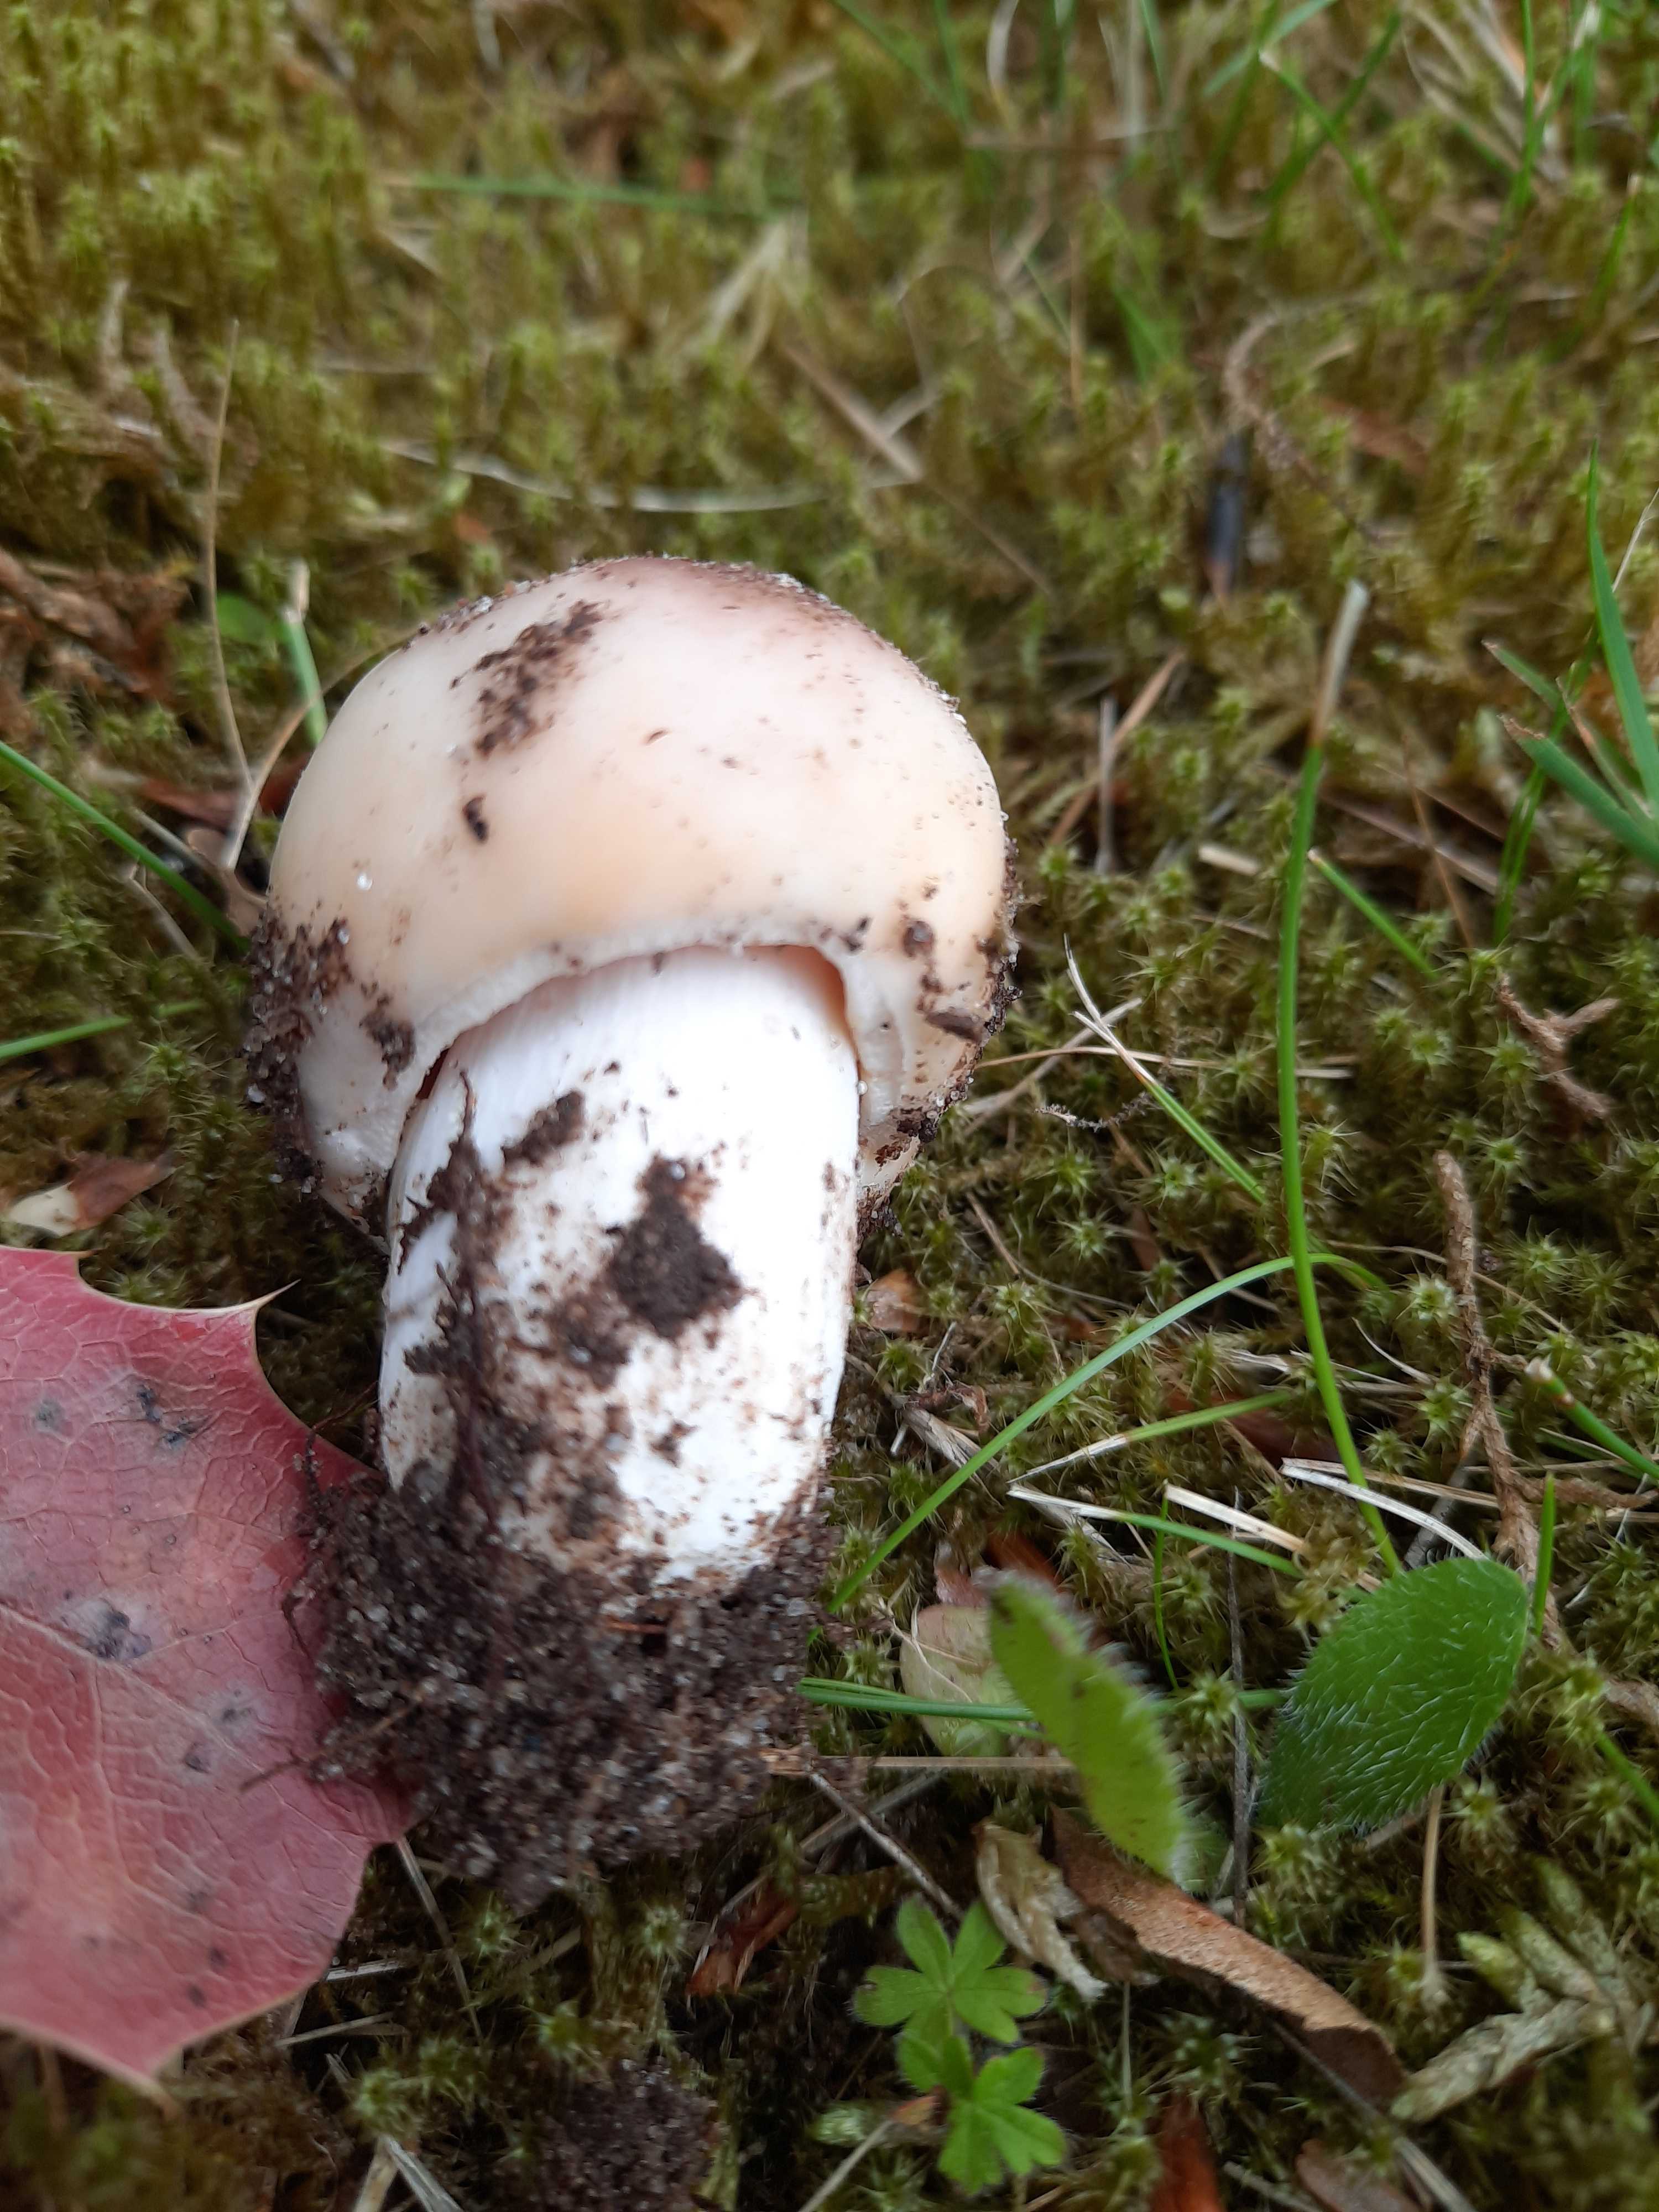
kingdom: Fungi
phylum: Basidiomycota
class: Agaricomycetes
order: Russulales
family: Russulaceae
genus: Russula
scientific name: Russula vesca
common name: spiselig skørhat
